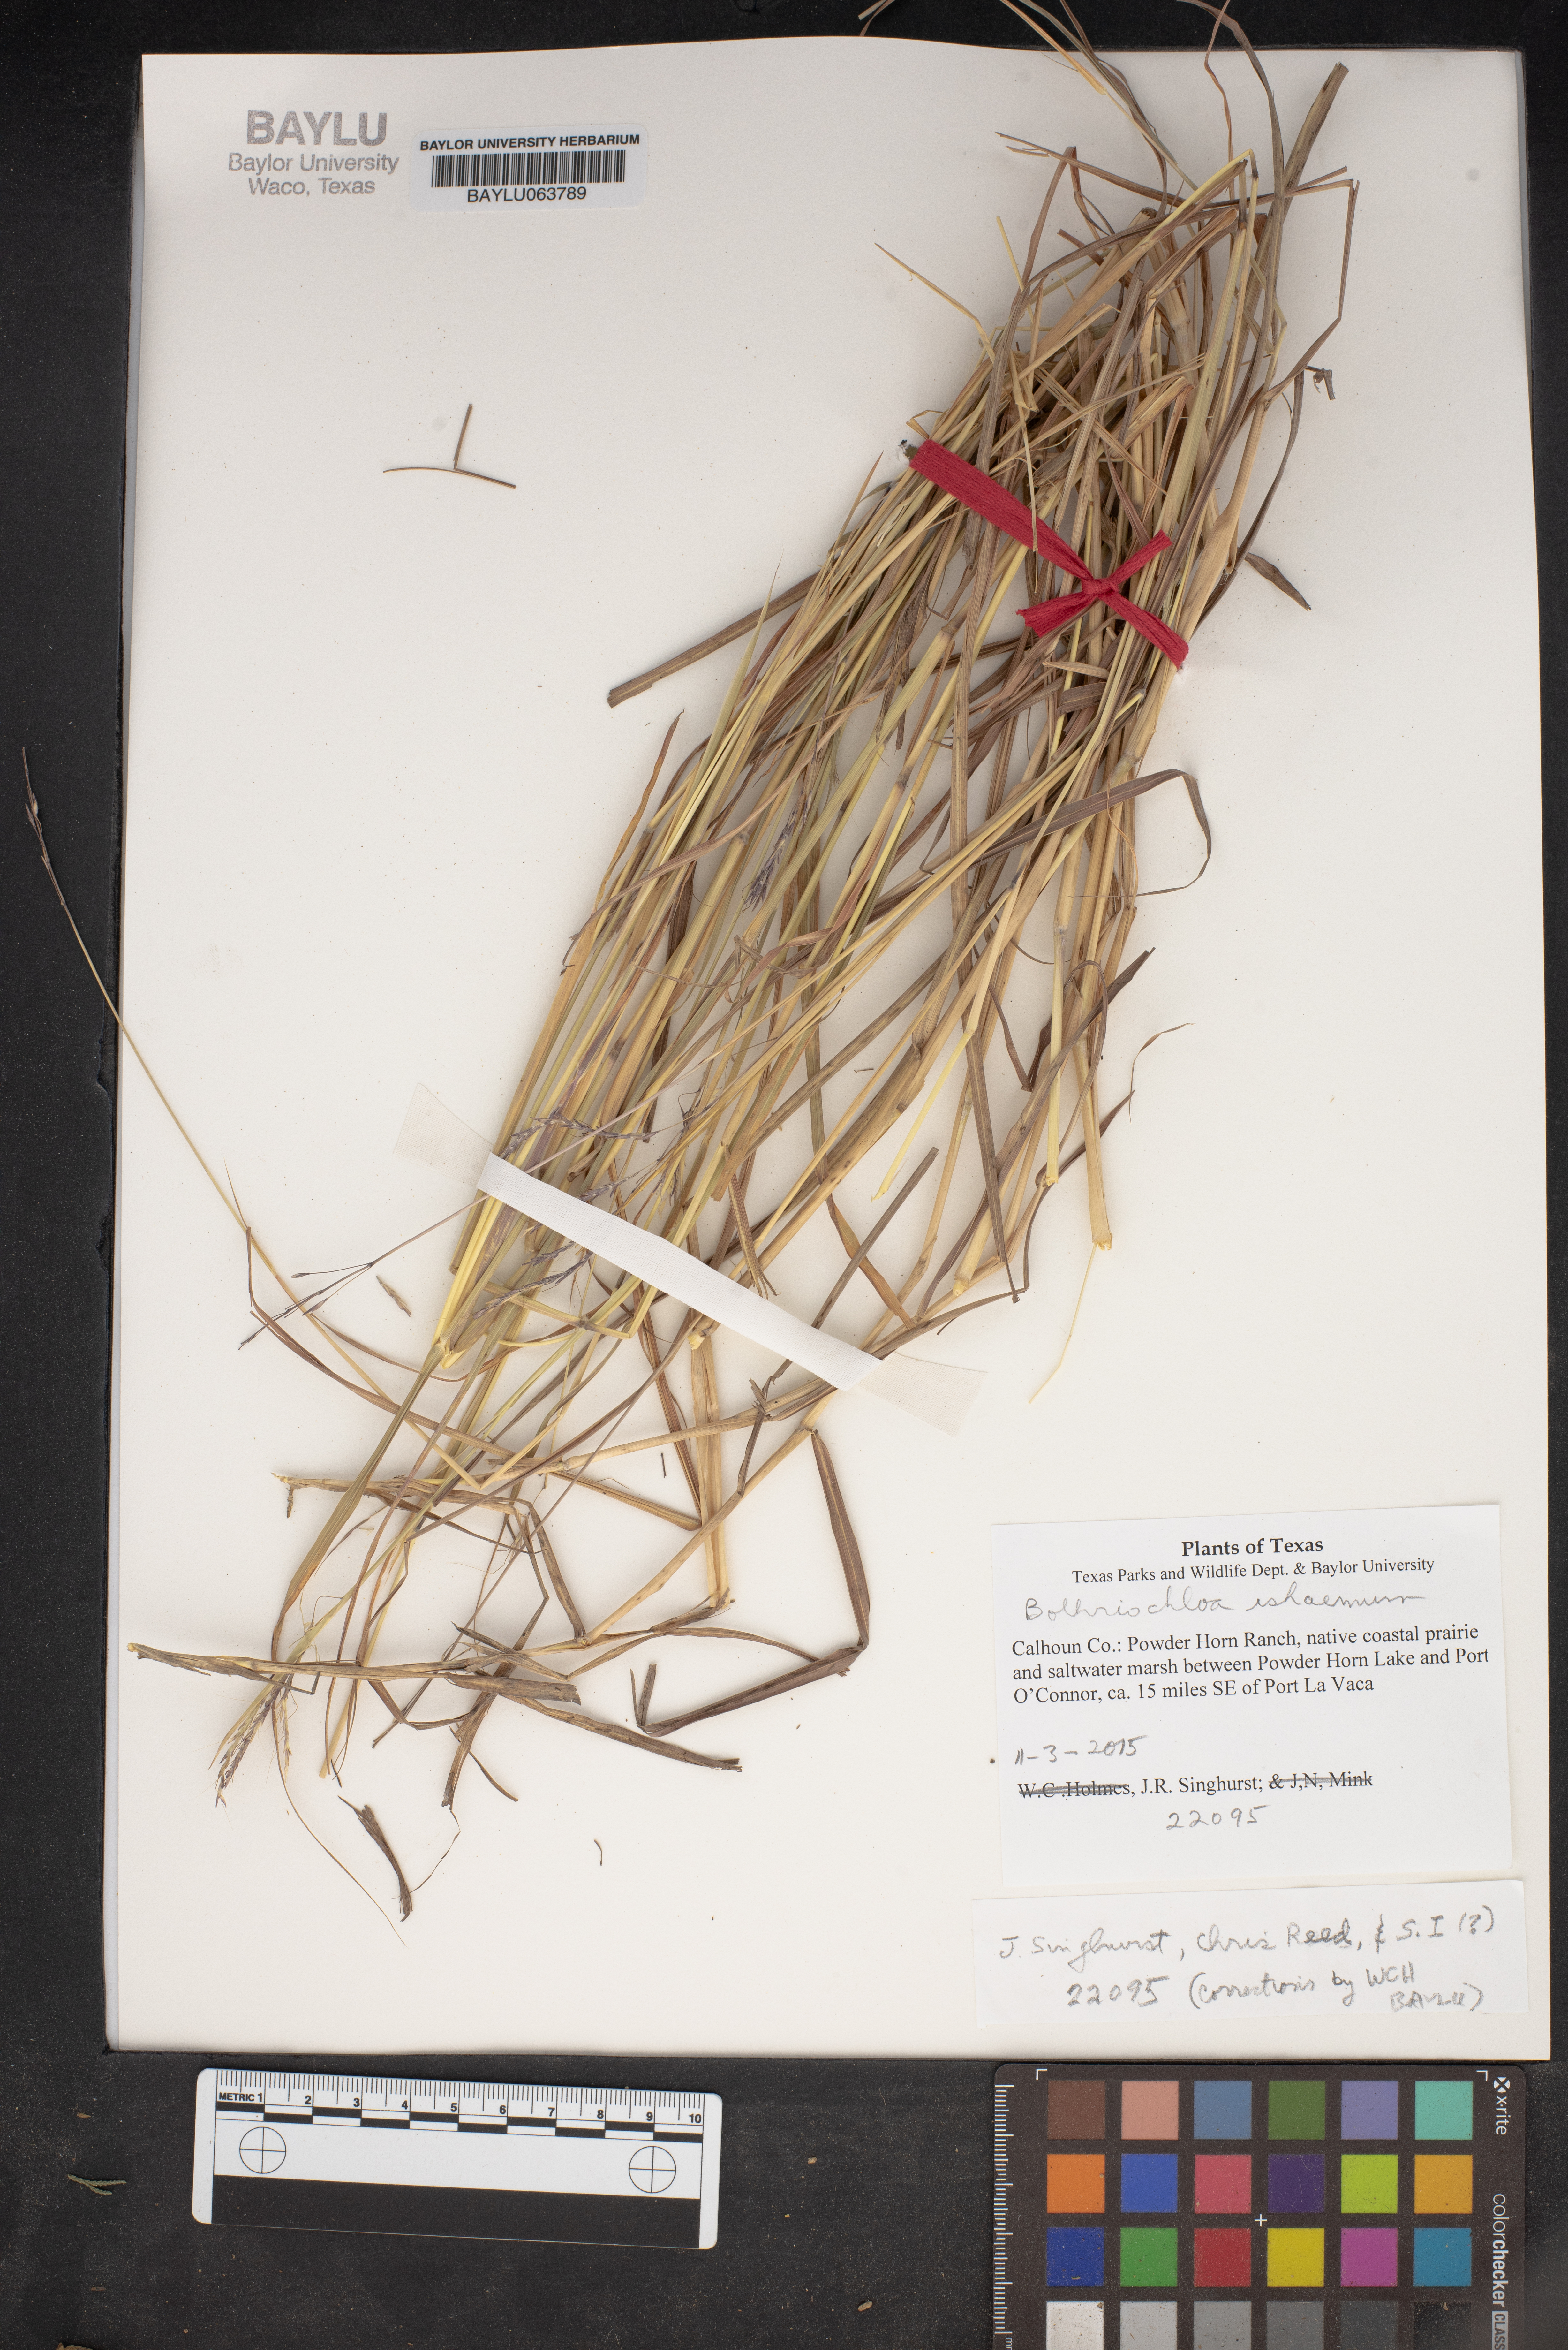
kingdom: Plantae
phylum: Tracheophyta
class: Liliopsida
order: Poales
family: Poaceae
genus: Bothriochloa
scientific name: Bothriochloa ischaemum
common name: Yellow bluestem
